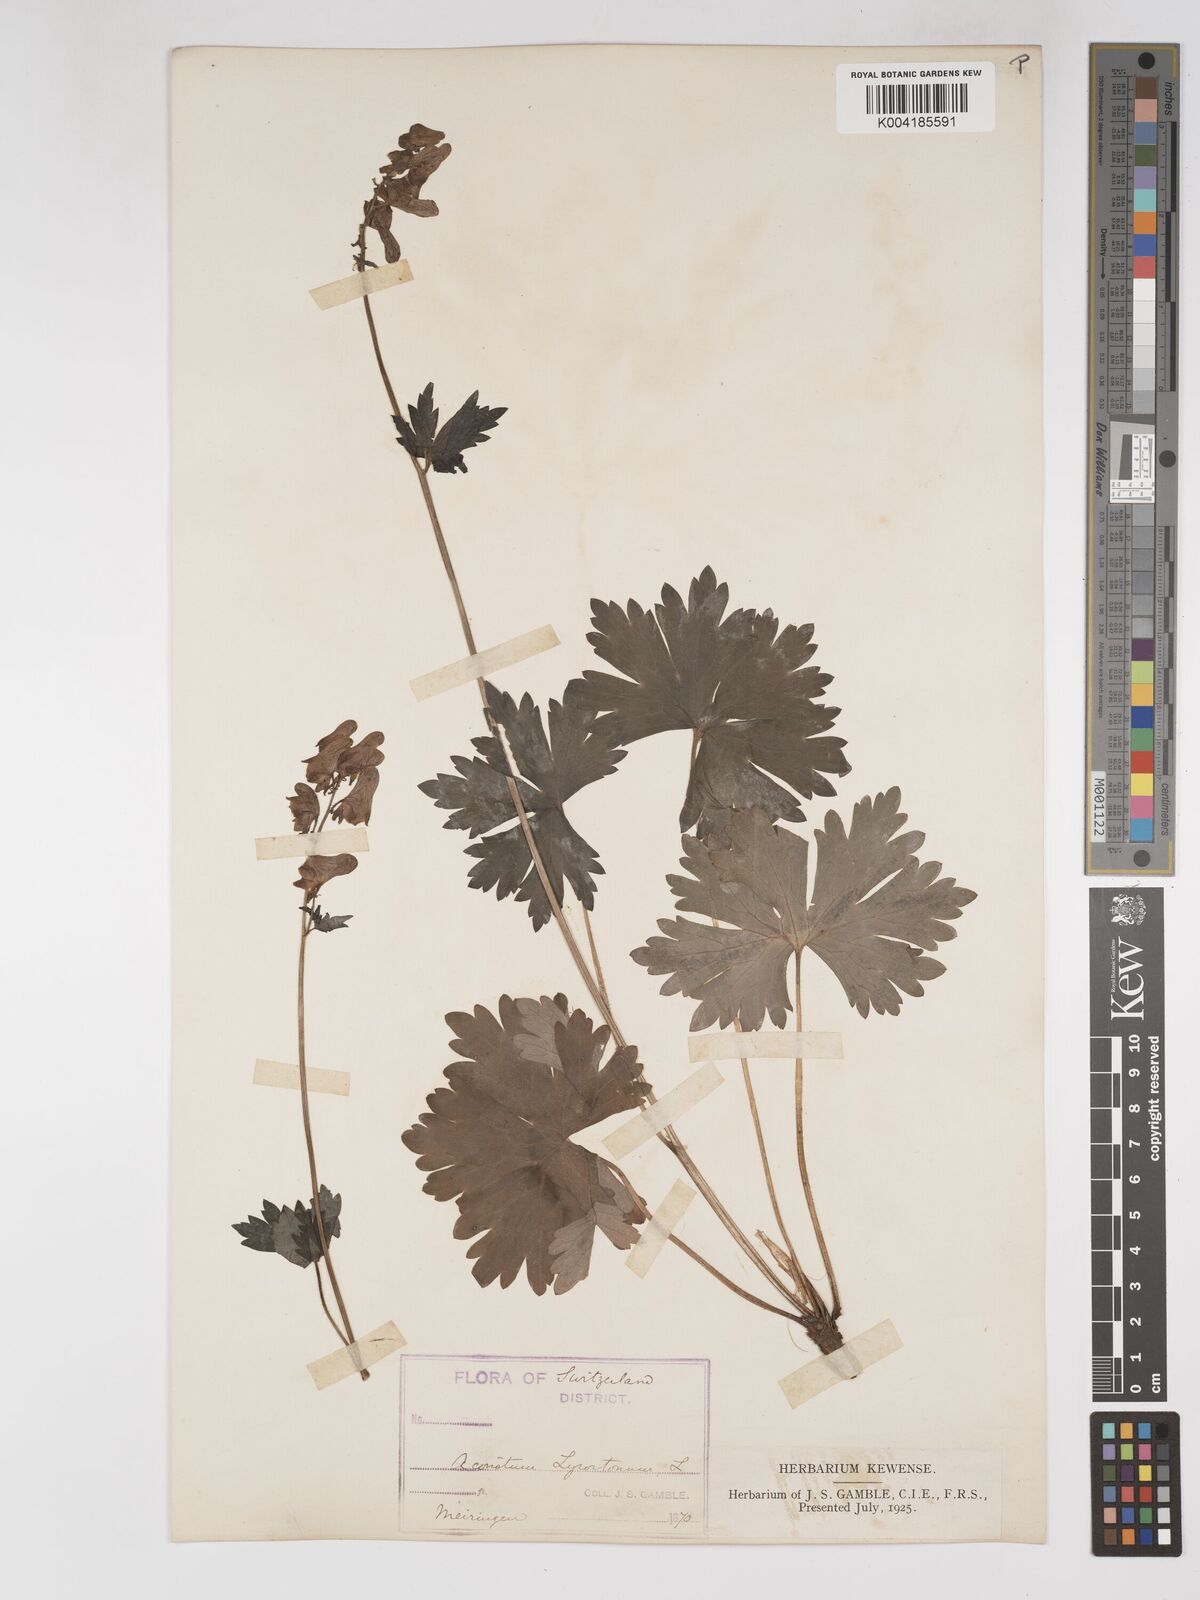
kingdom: Plantae
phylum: Tracheophyta
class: Magnoliopsida
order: Ranunculales
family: Ranunculaceae
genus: Aconitum
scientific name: Aconitum lycoctonum
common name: Wolf's-bane
